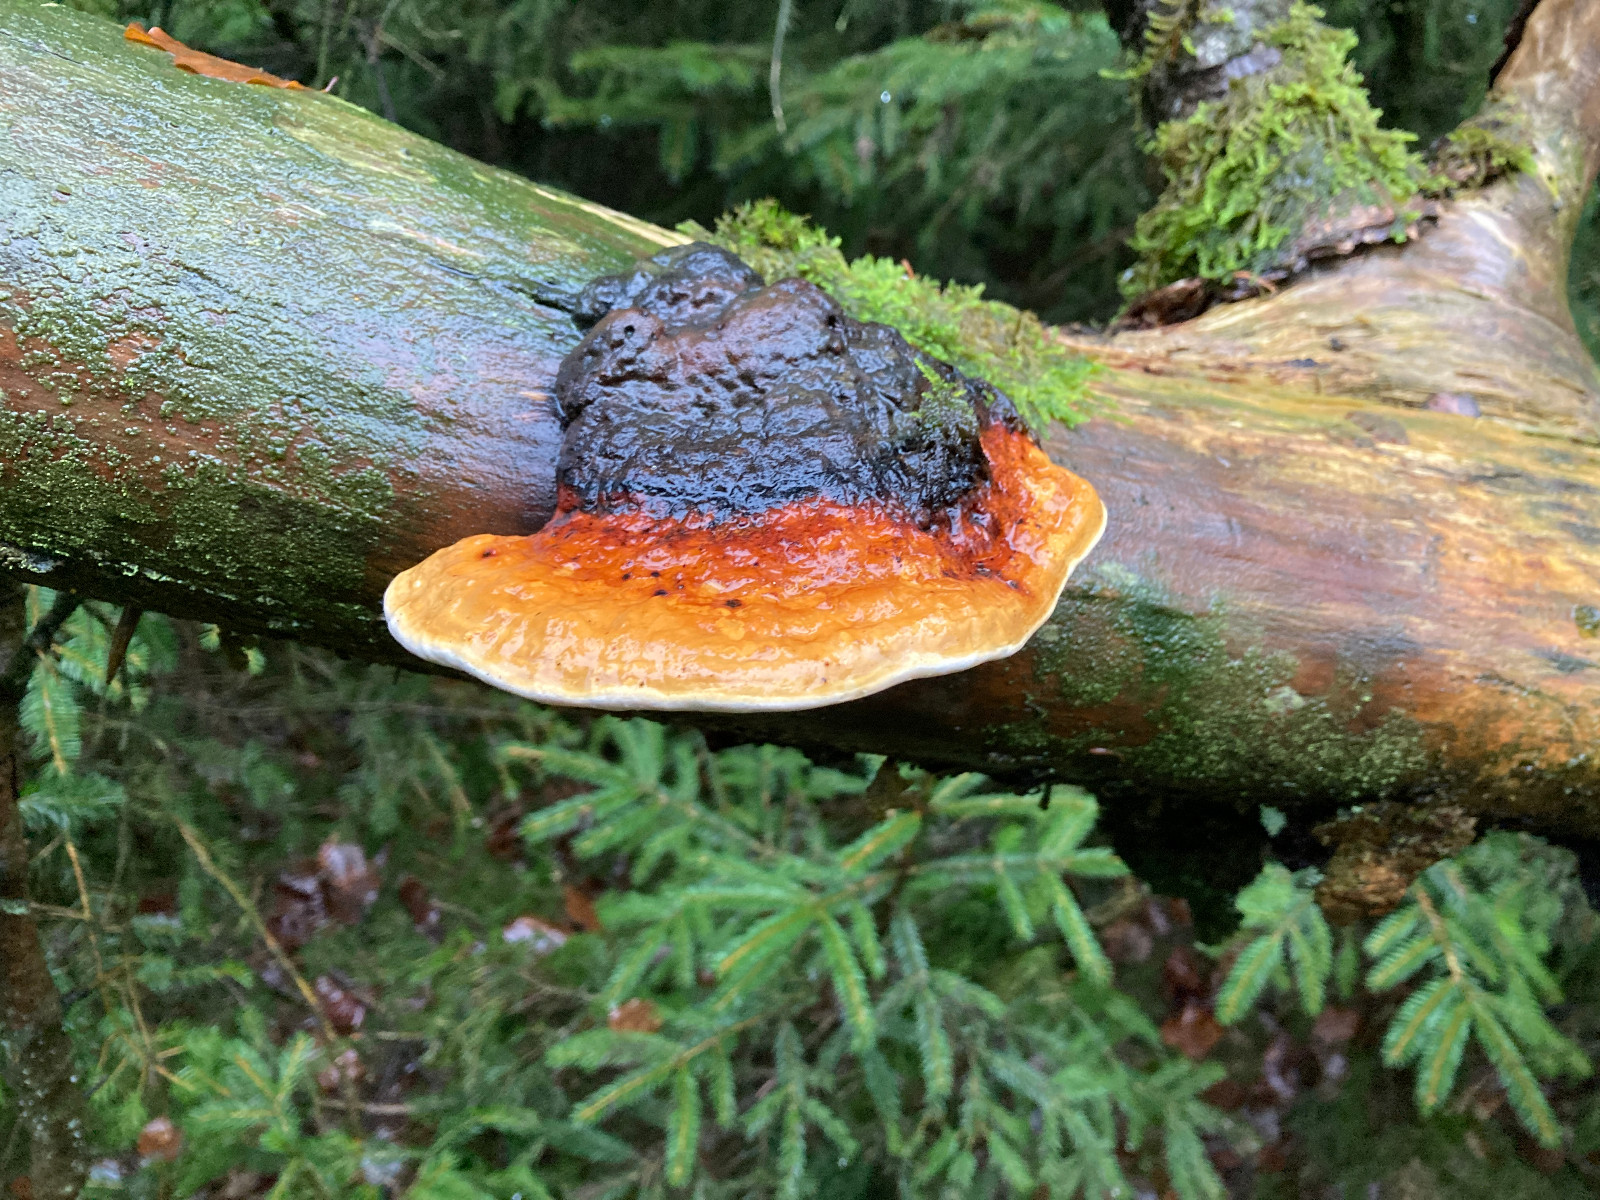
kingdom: Fungi
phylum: Basidiomycota
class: Agaricomycetes
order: Polyporales
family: Fomitopsidaceae
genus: Fomitopsis
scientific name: Fomitopsis pinicola
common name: randbæltet hovporesvamp
